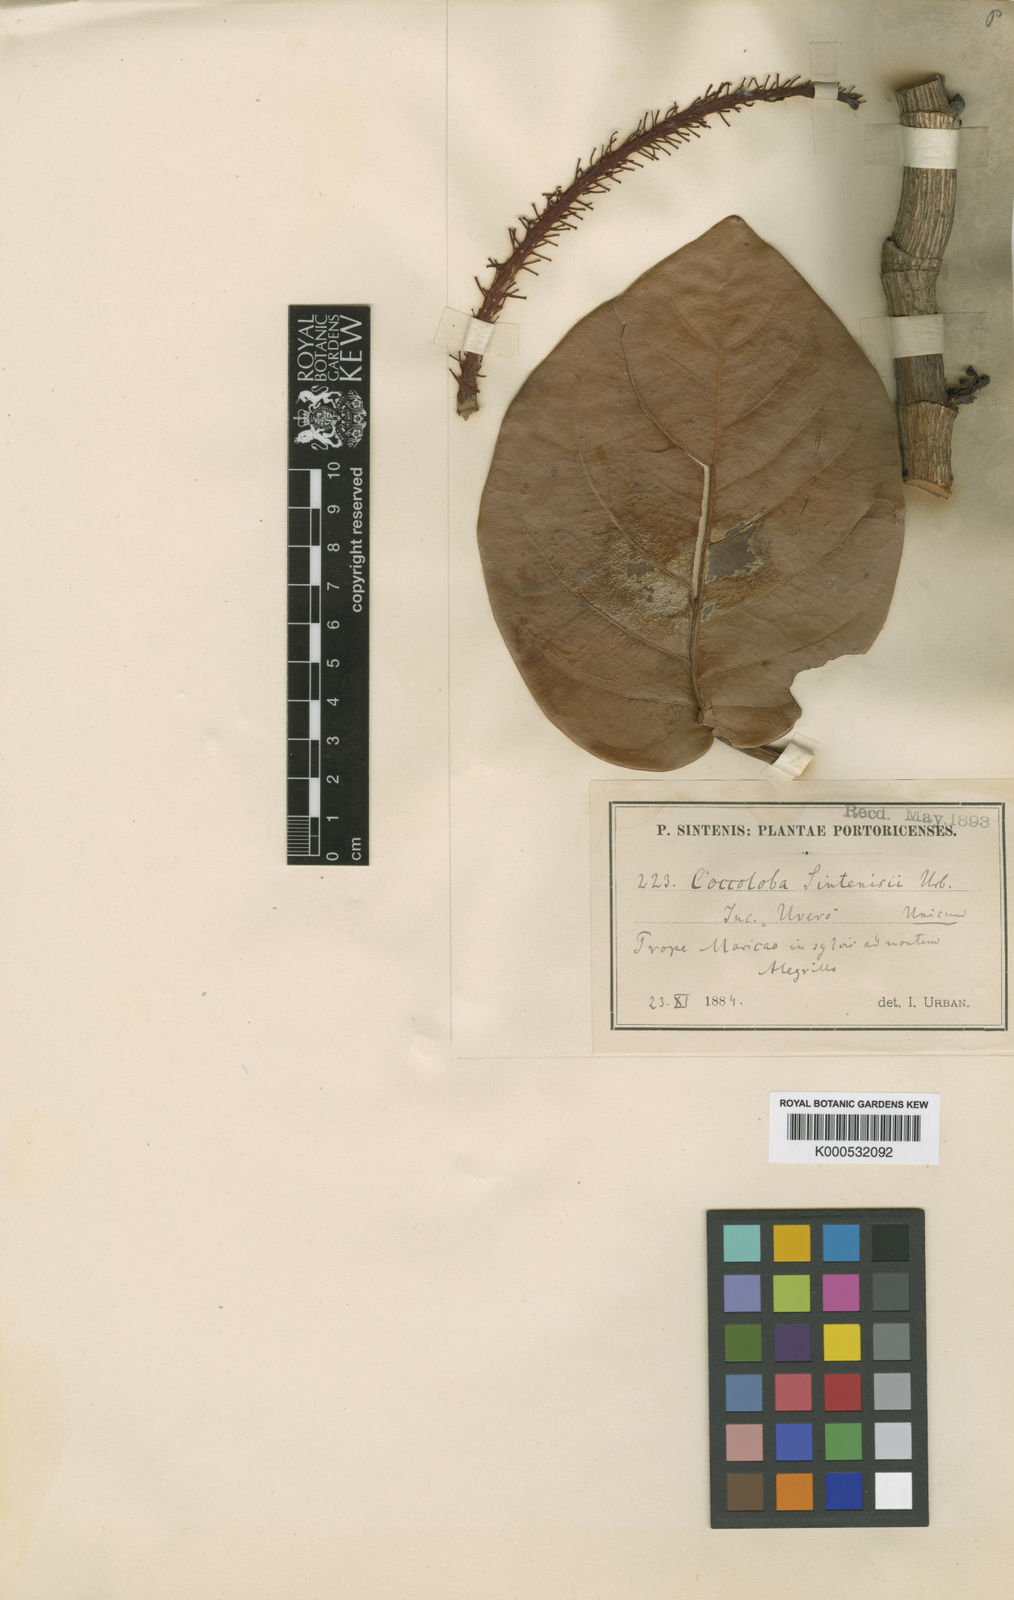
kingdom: Plantae
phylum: Tracheophyta
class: Magnoliopsida
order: Caryophyllales
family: Polygonaceae
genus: Coccoloba
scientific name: Coccoloba sintenisii
